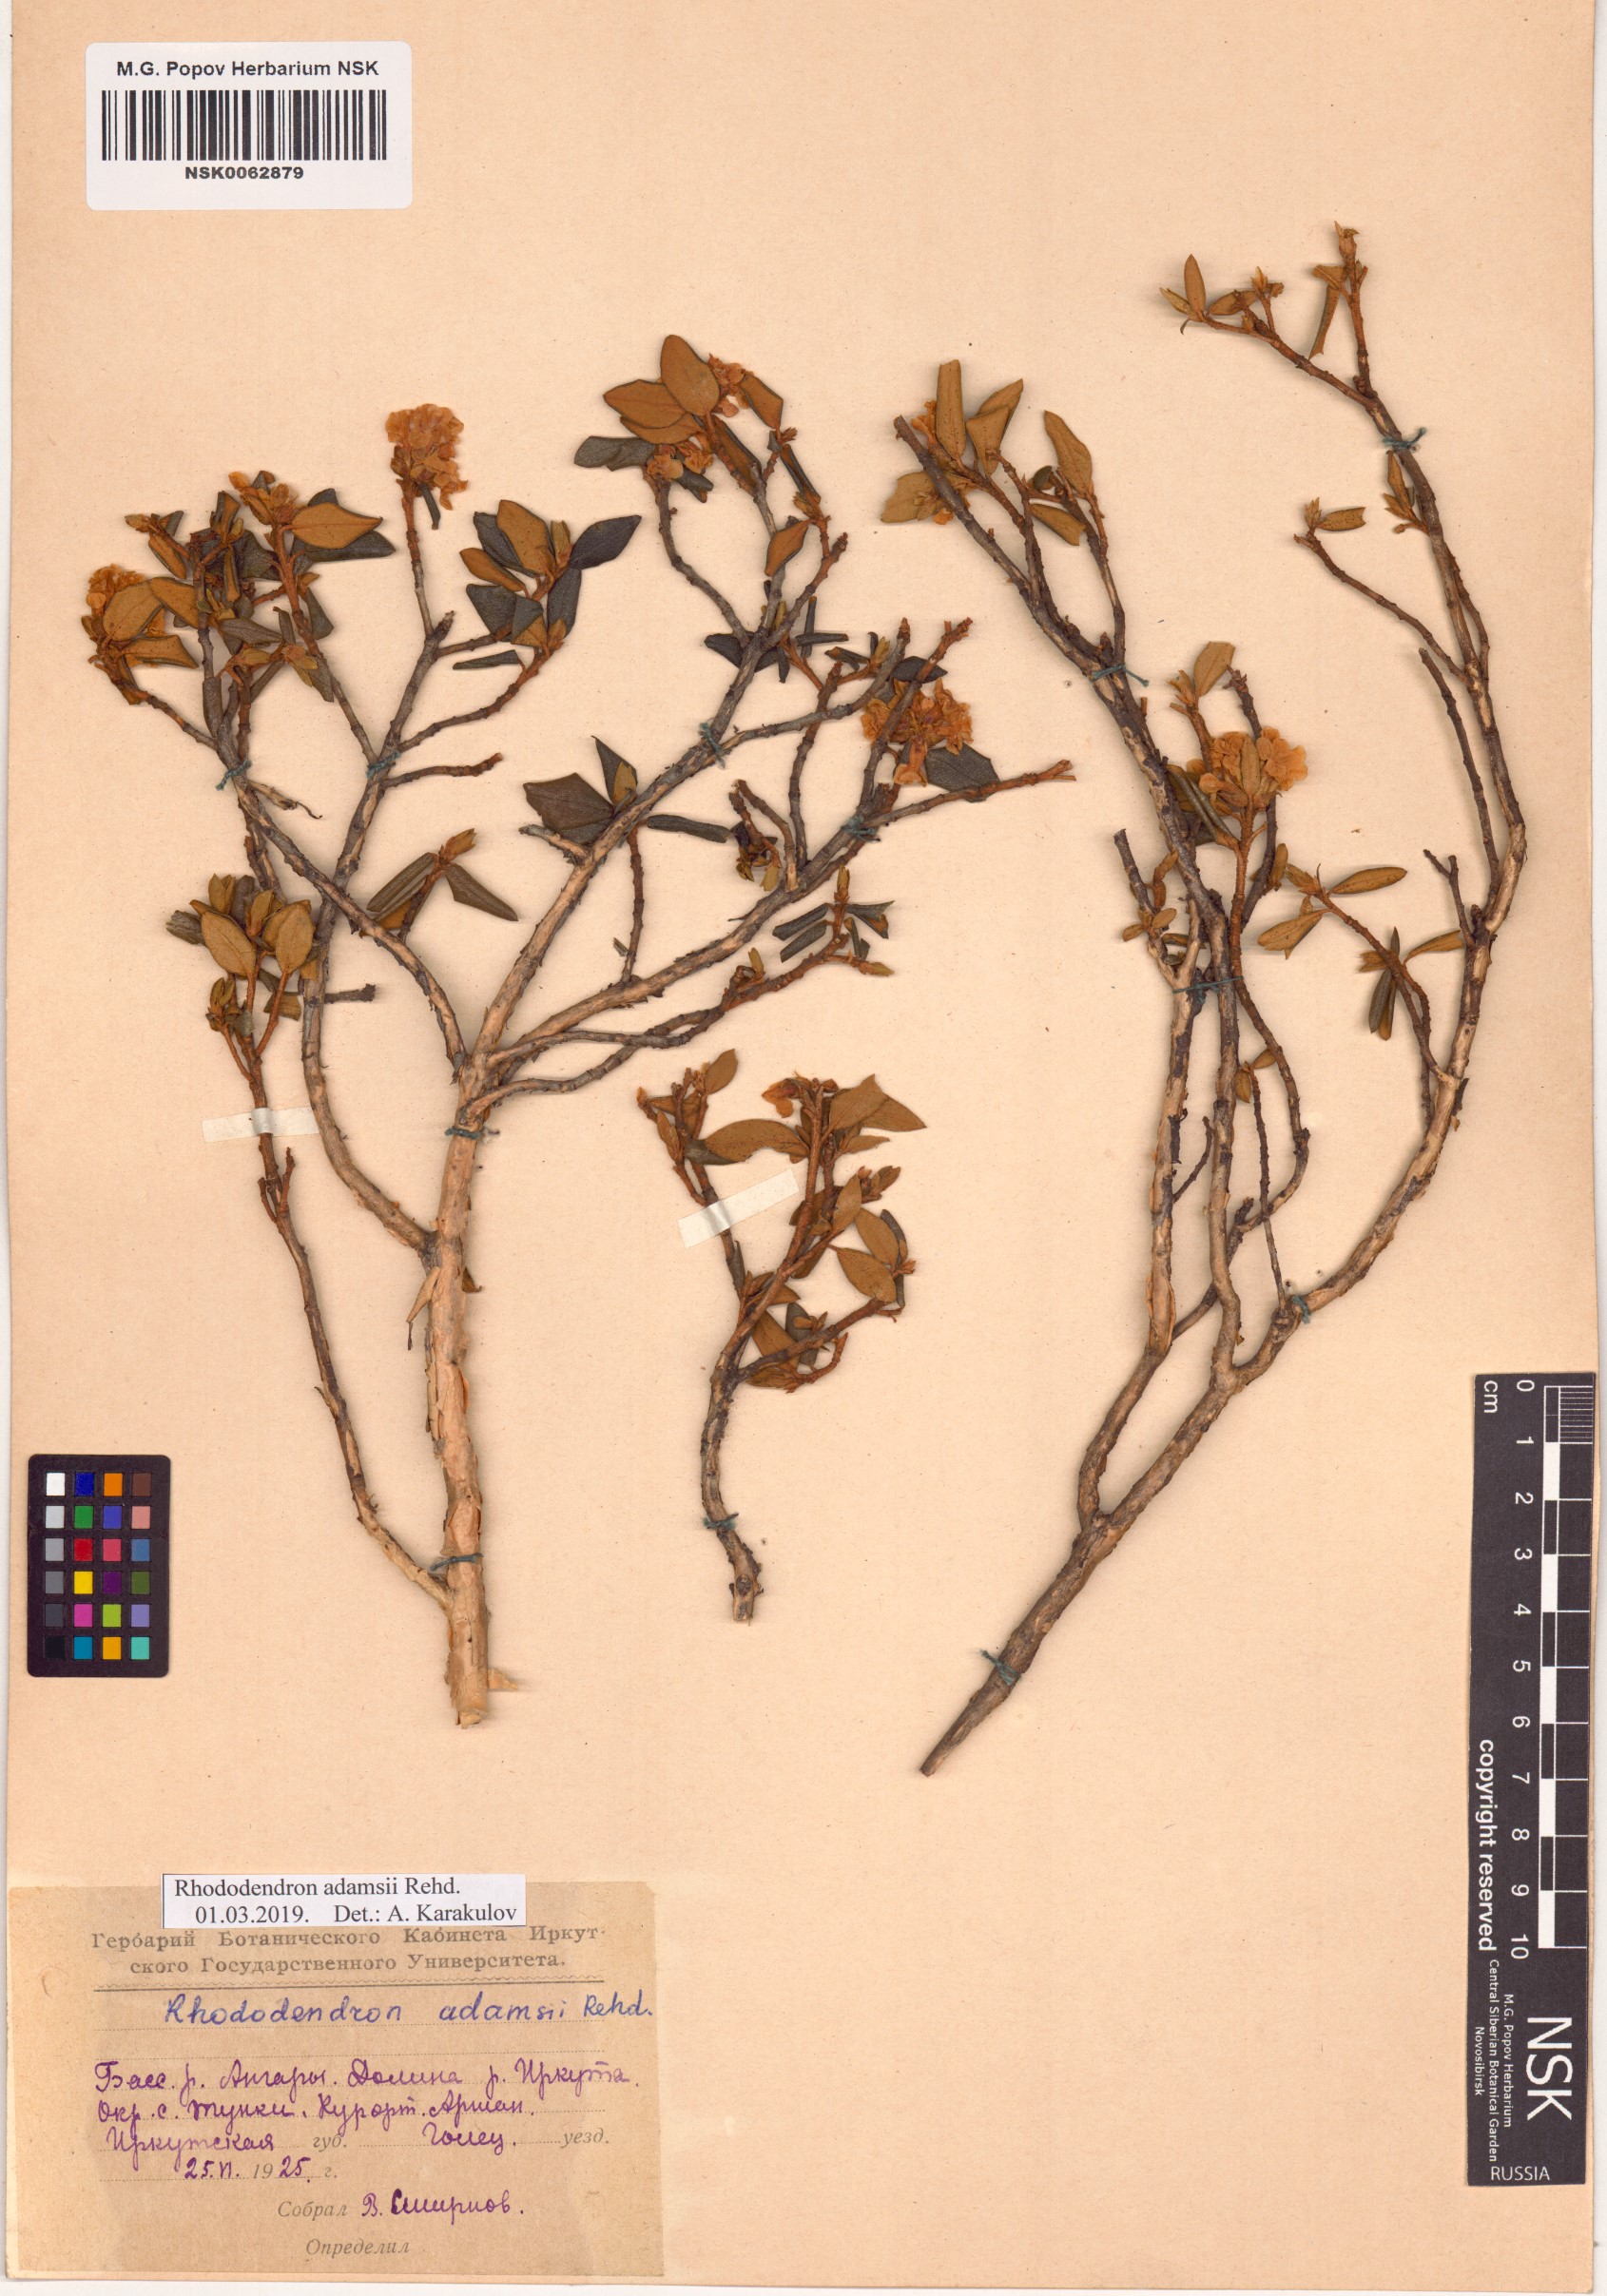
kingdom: Plantae
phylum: Tracheophyta
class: Magnoliopsida
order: Ericales
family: Ericaceae
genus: Rhododendron
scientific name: Rhododendron adamsii
